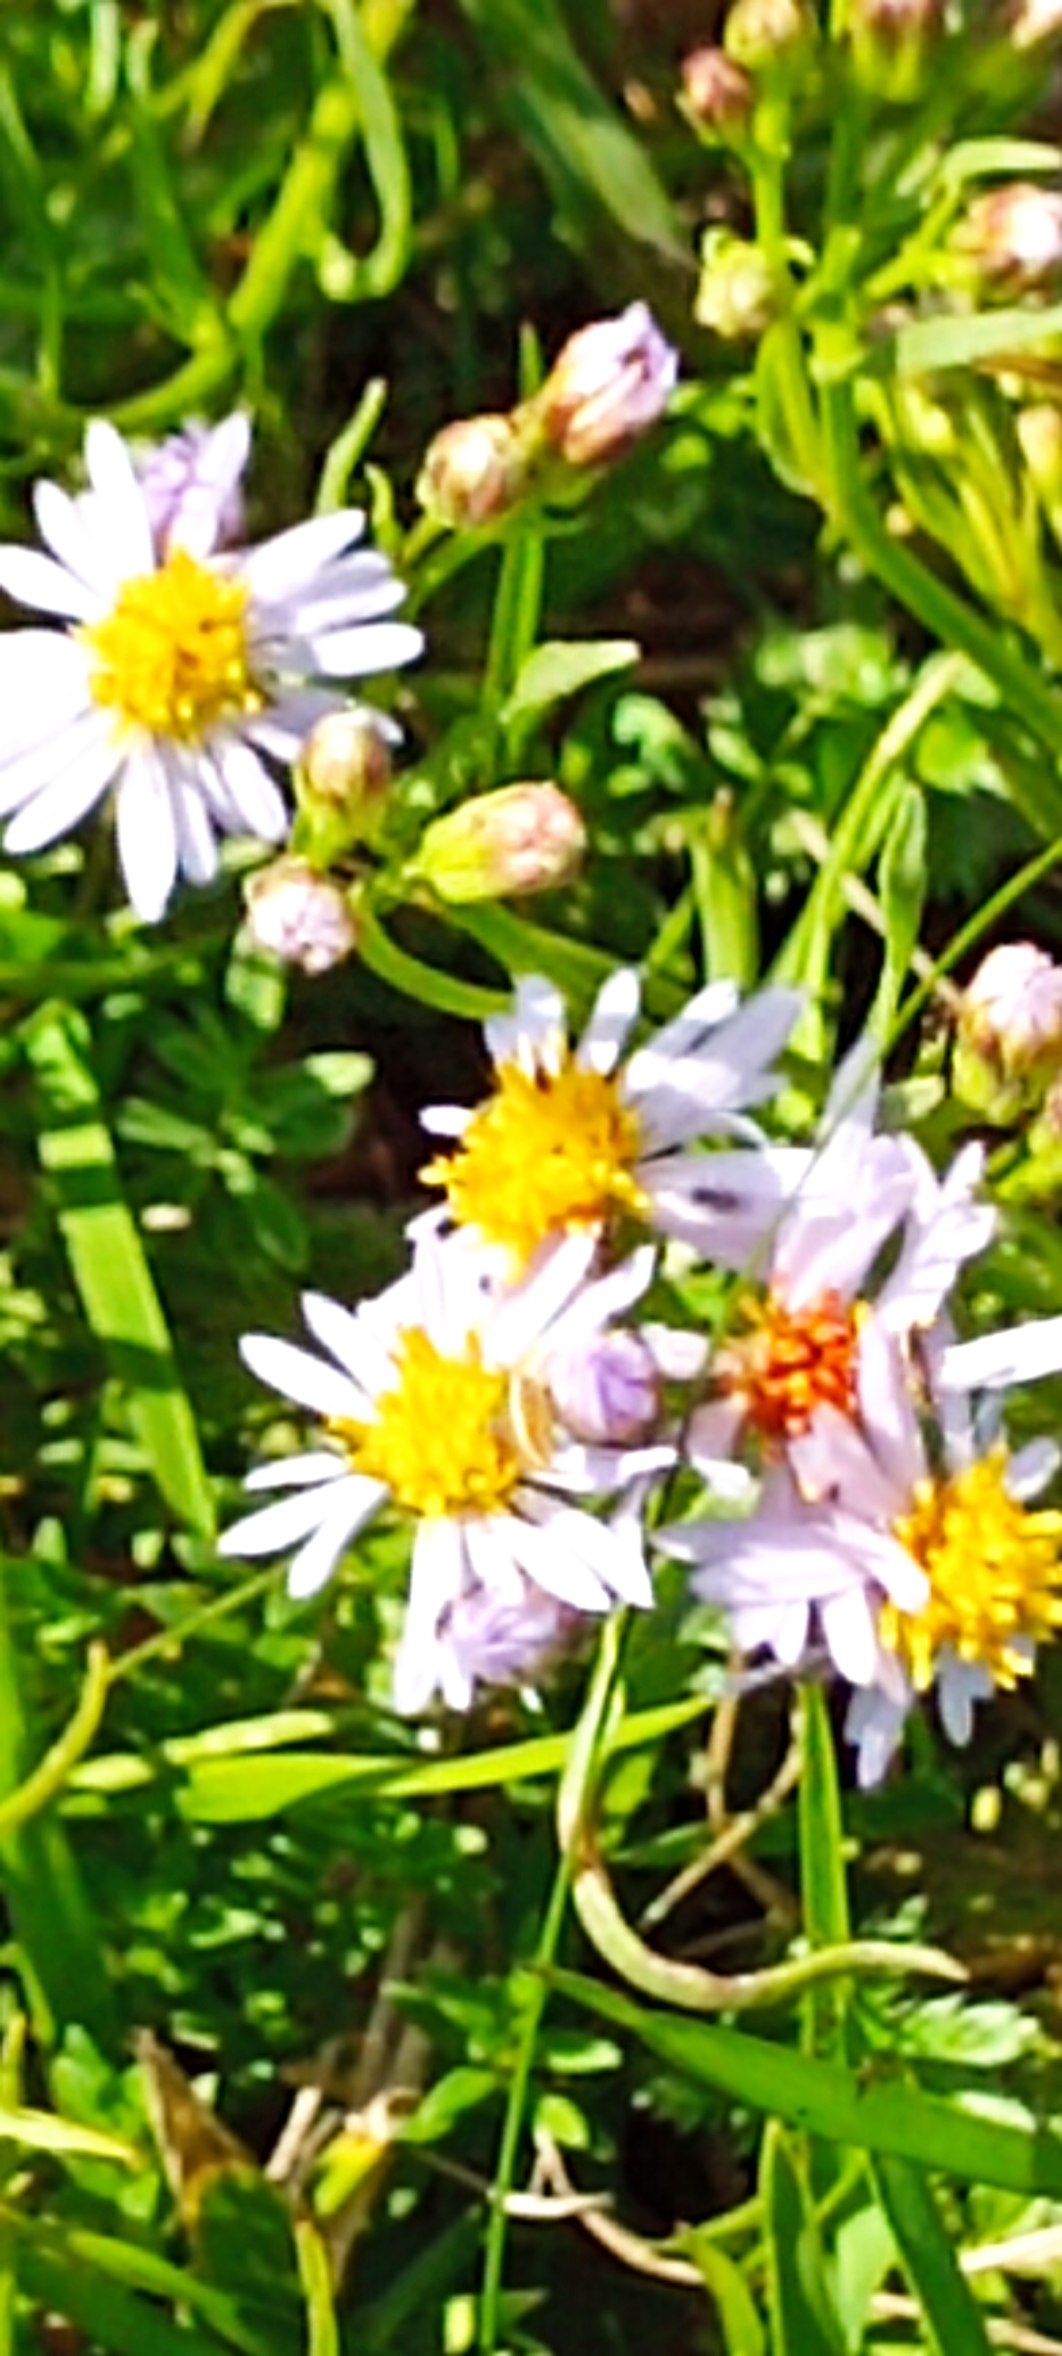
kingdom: Plantae
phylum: Tracheophyta
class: Magnoliopsida
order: Asterales
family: Asteraceae
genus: Tripolium
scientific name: Tripolium pannonicum
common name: Strandasters
